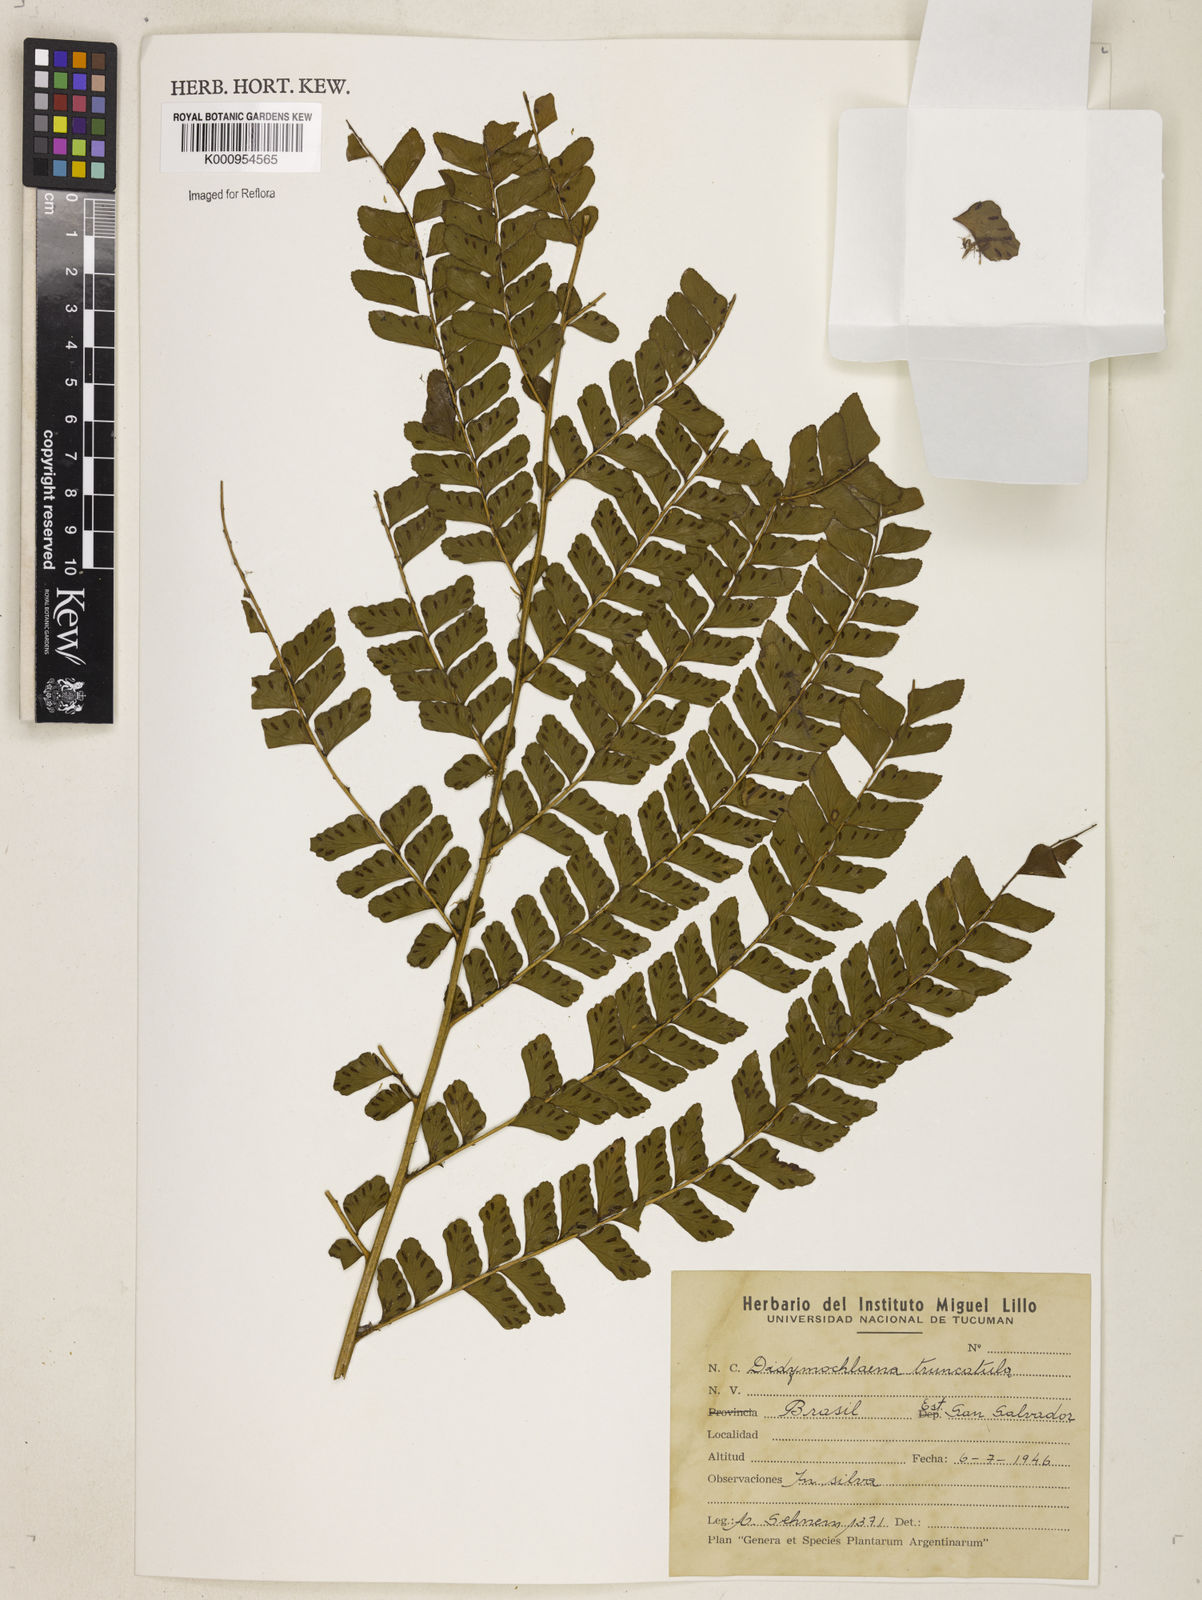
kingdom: Plantae
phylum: Tracheophyta
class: Polypodiopsida
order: Polypodiales
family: Didymochlaenaceae
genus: Didymochlaena
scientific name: Didymochlaena truncatula
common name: Mahogany fern
